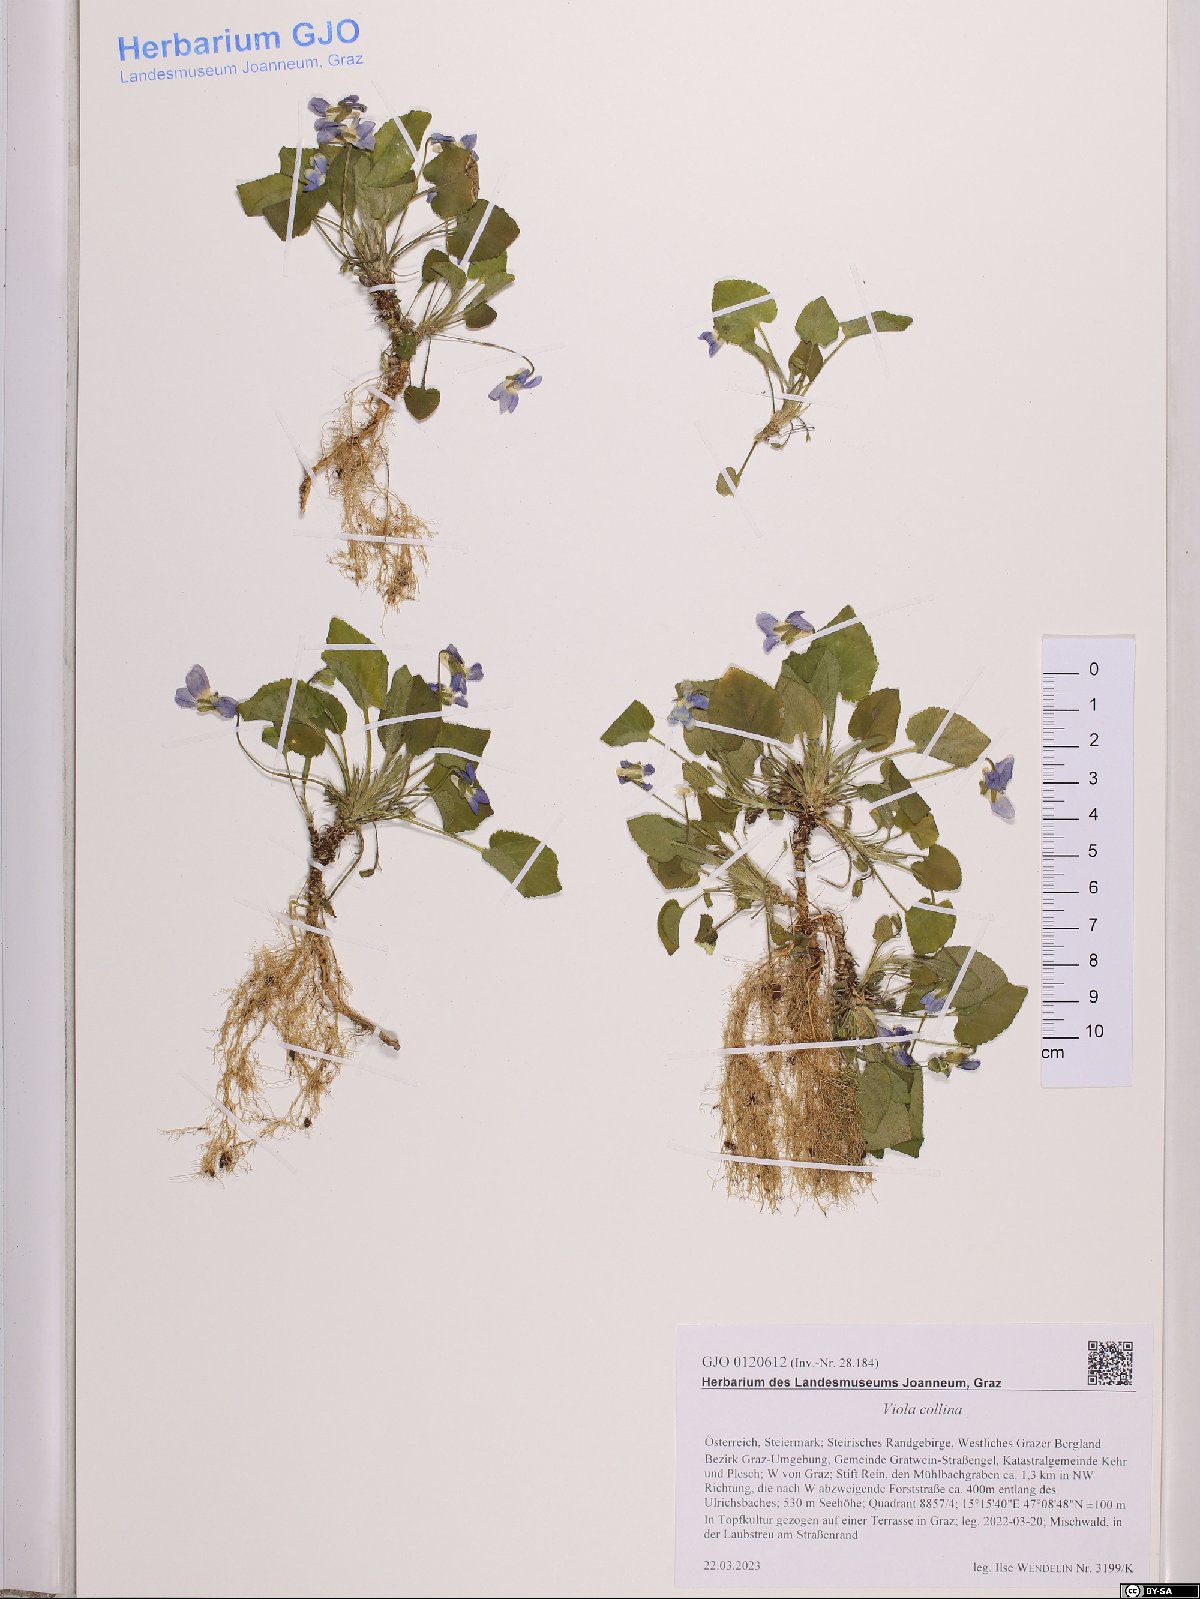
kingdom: Plantae
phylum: Tracheophyta
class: Magnoliopsida
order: Malpighiales
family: Violaceae
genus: Viola
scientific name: Viola collina
